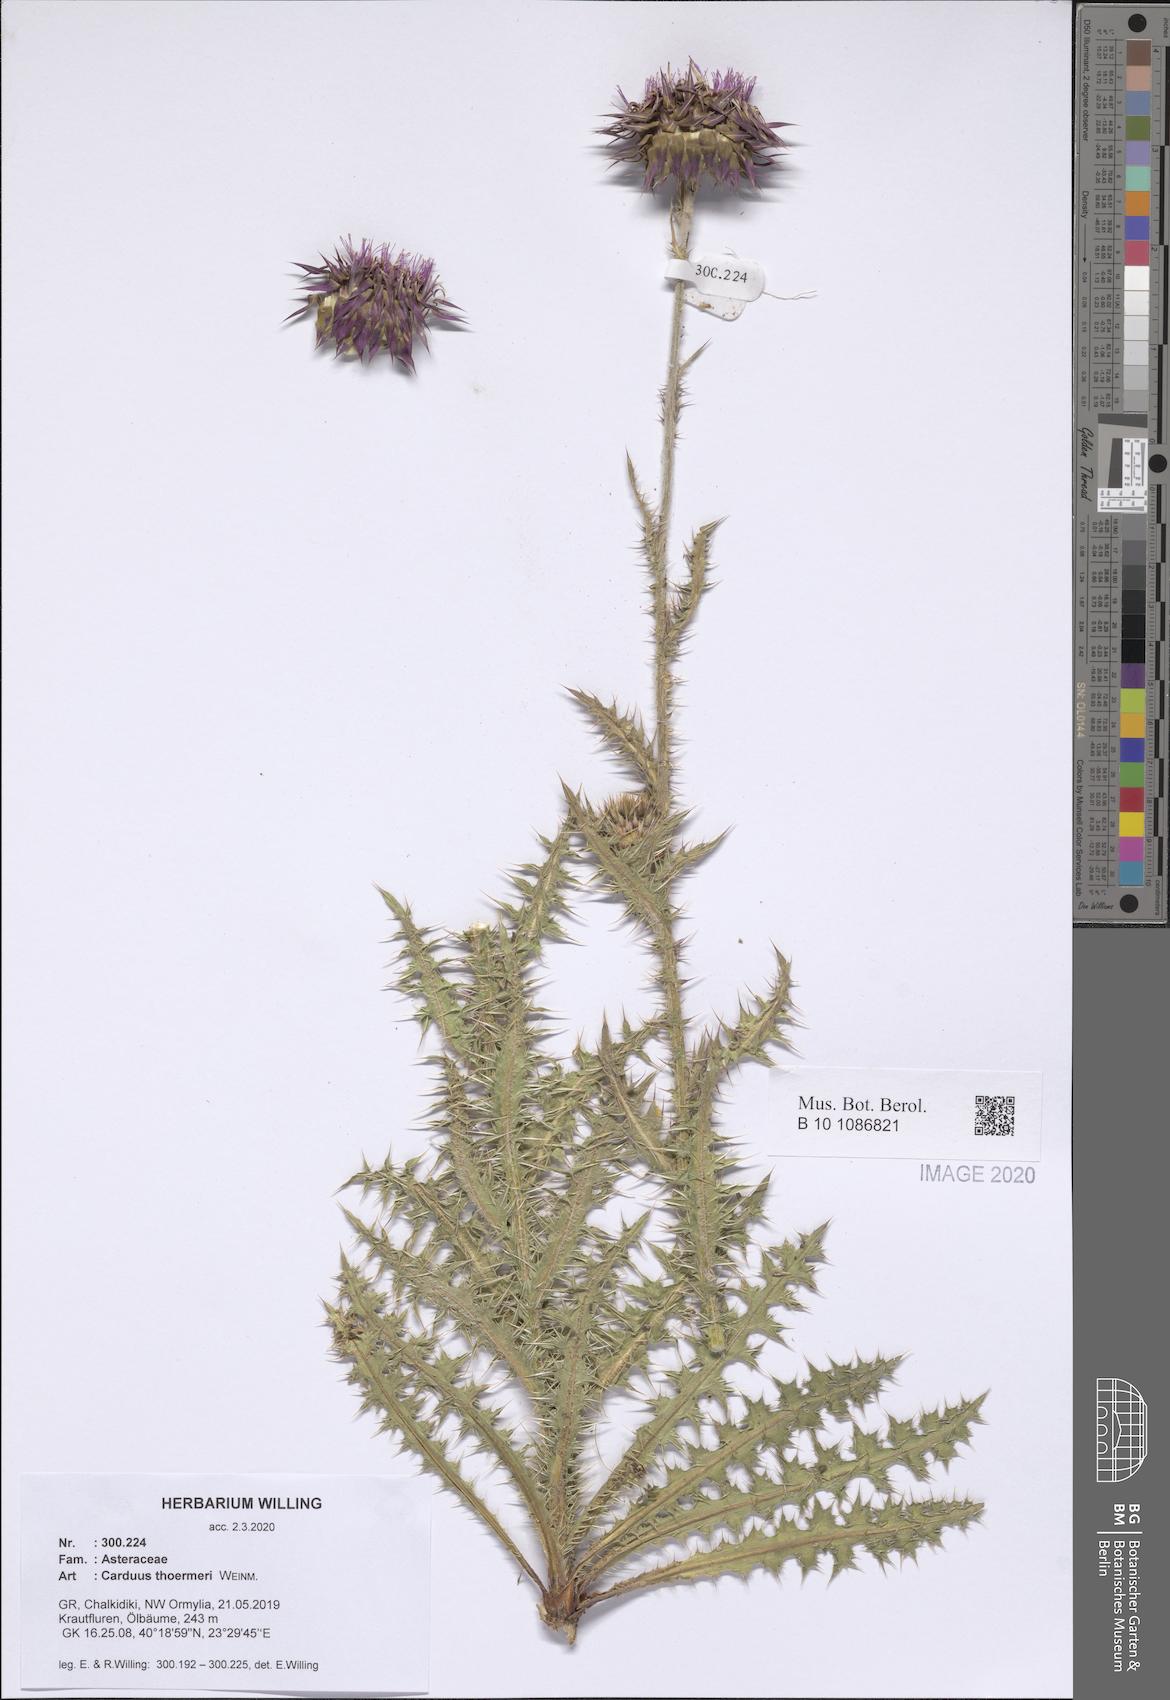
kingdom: Plantae
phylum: Tracheophyta
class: Magnoliopsida
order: Asterales
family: Asteraceae
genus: Carduus
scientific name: Carduus nutans
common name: Musk thistle
